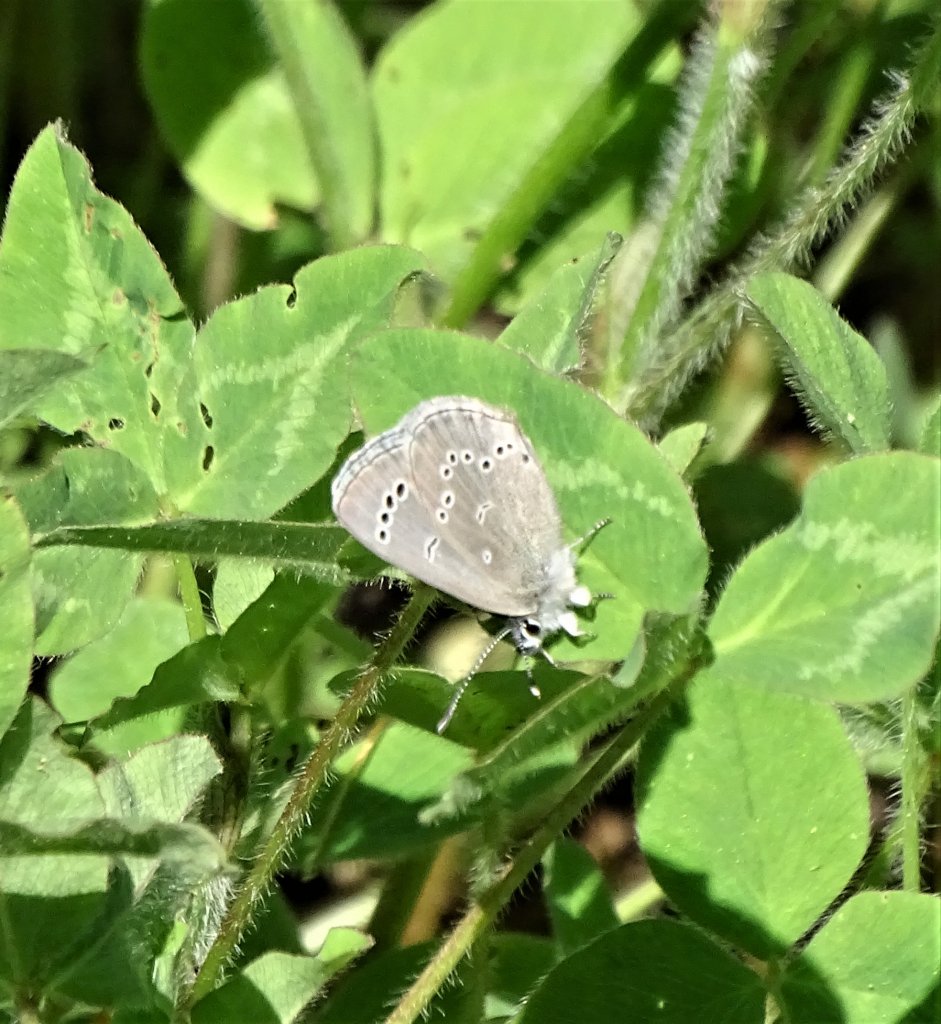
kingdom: Animalia
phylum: Arthropoda
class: Insecta
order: Lepidoptera
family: Lycaenidae
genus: Glaucopsyche
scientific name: Glaucopsyche lygdamus
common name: Silvery Blue
